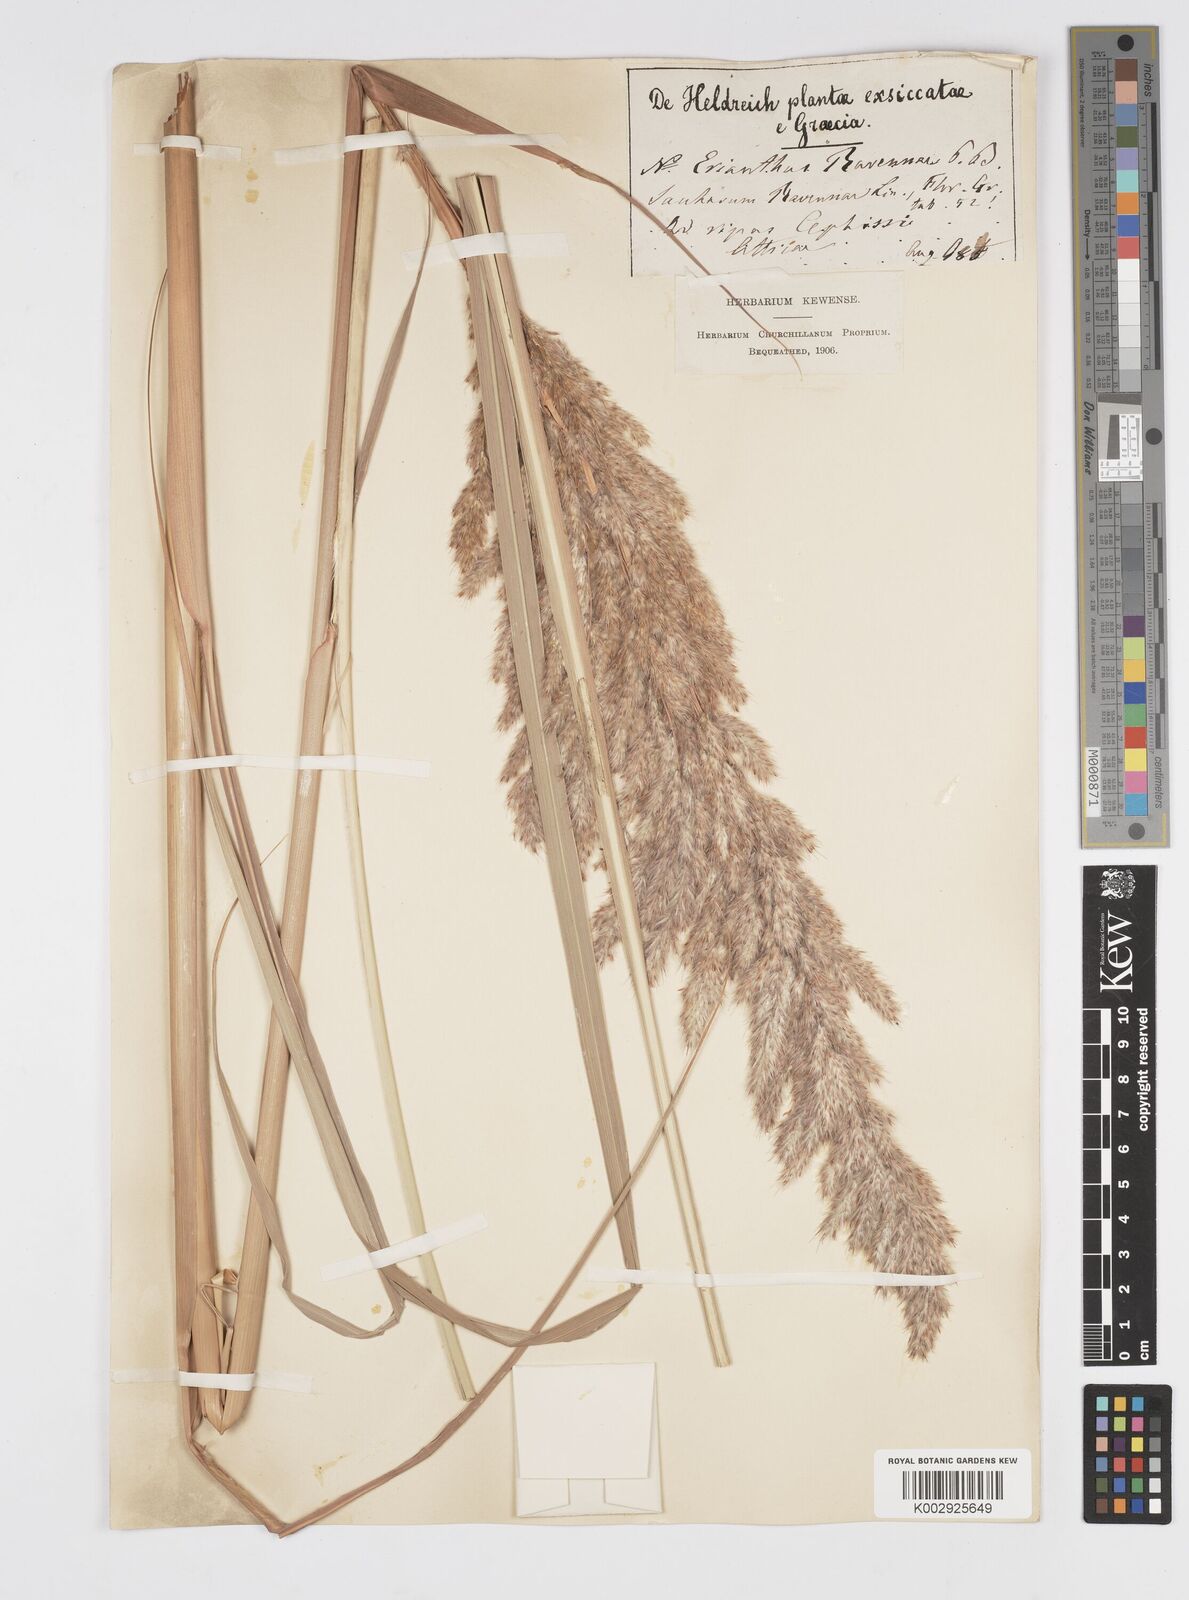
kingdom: Plantae
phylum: Tracheophyta
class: Liliopsida
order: Poales
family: Poaceae
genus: Tripidium
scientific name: Tripidium ravennae
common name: Ravenna grass
